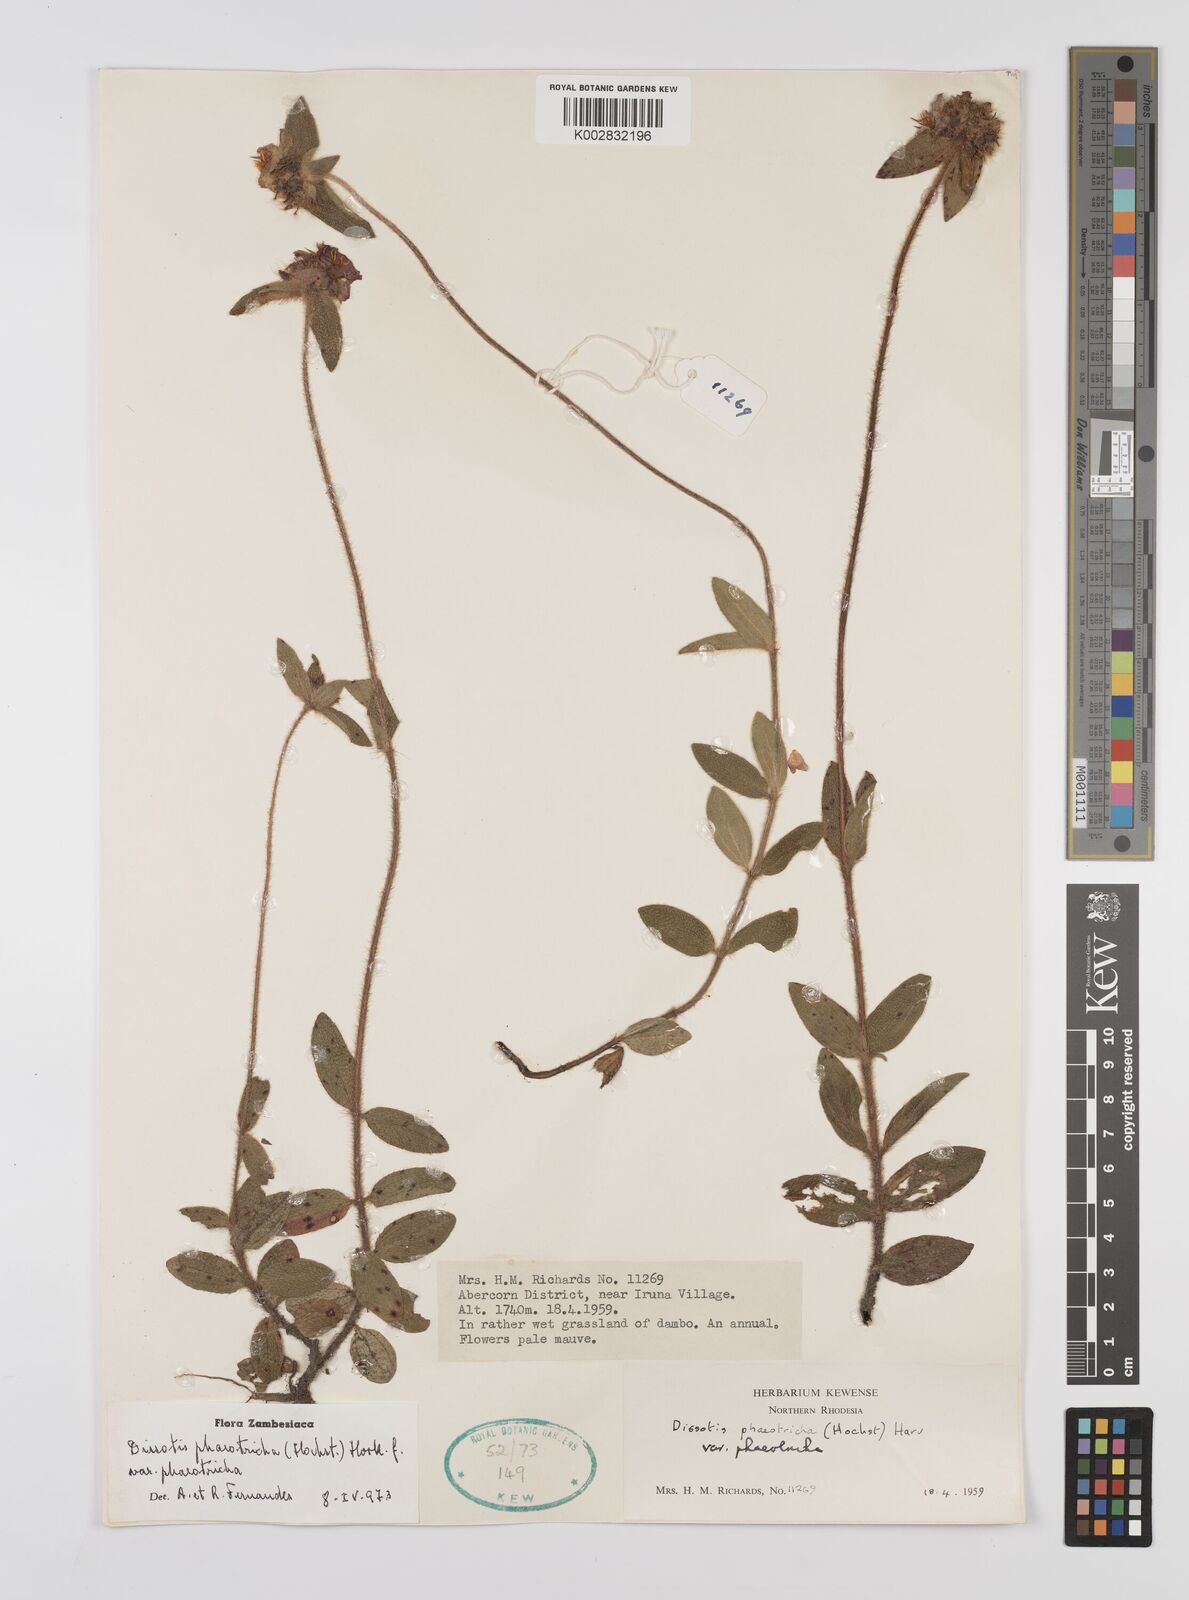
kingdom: Plantae
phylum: Tracheophyta
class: Magnoliopsida
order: Myrtales
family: Melastomataceae
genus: Antherotoma
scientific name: Antherotoma phaeotricha
